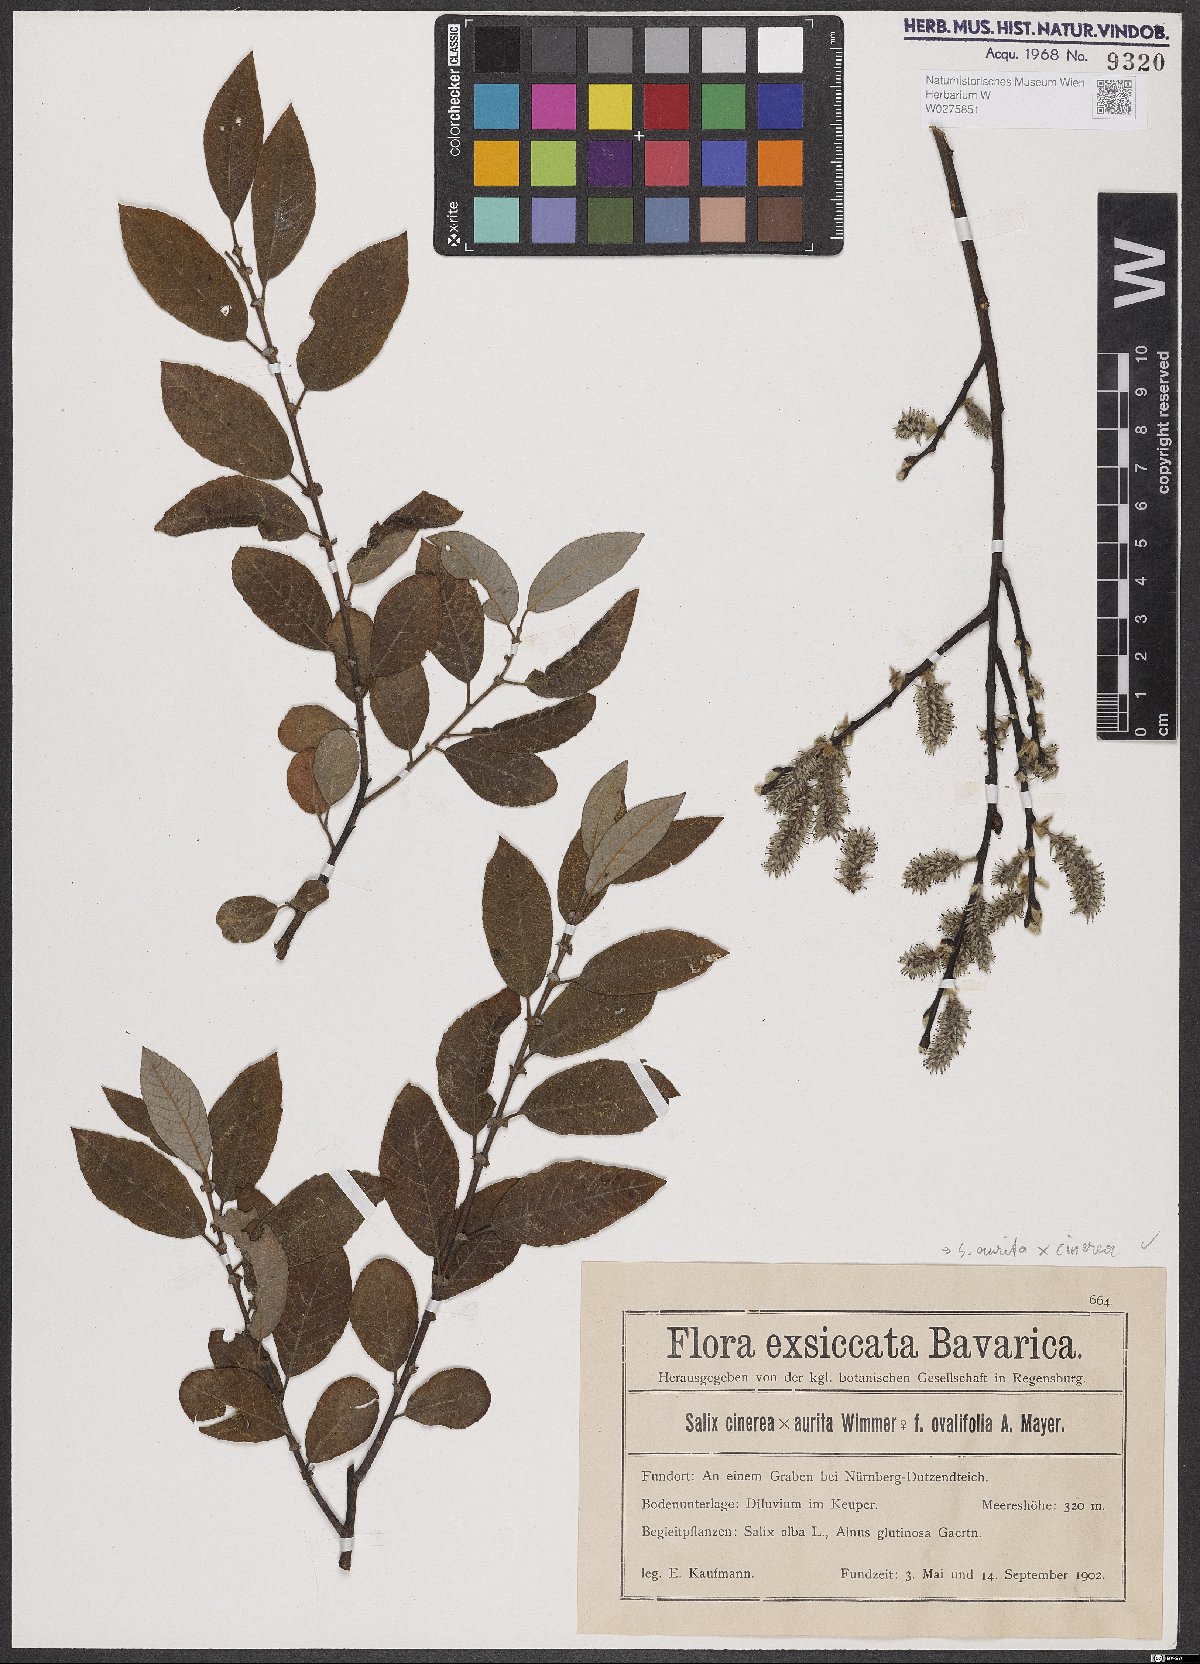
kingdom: Plantae
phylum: Tracheophyta
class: Magnoliopsida
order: Malpighiales
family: Salicaceae
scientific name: Salicaceae
